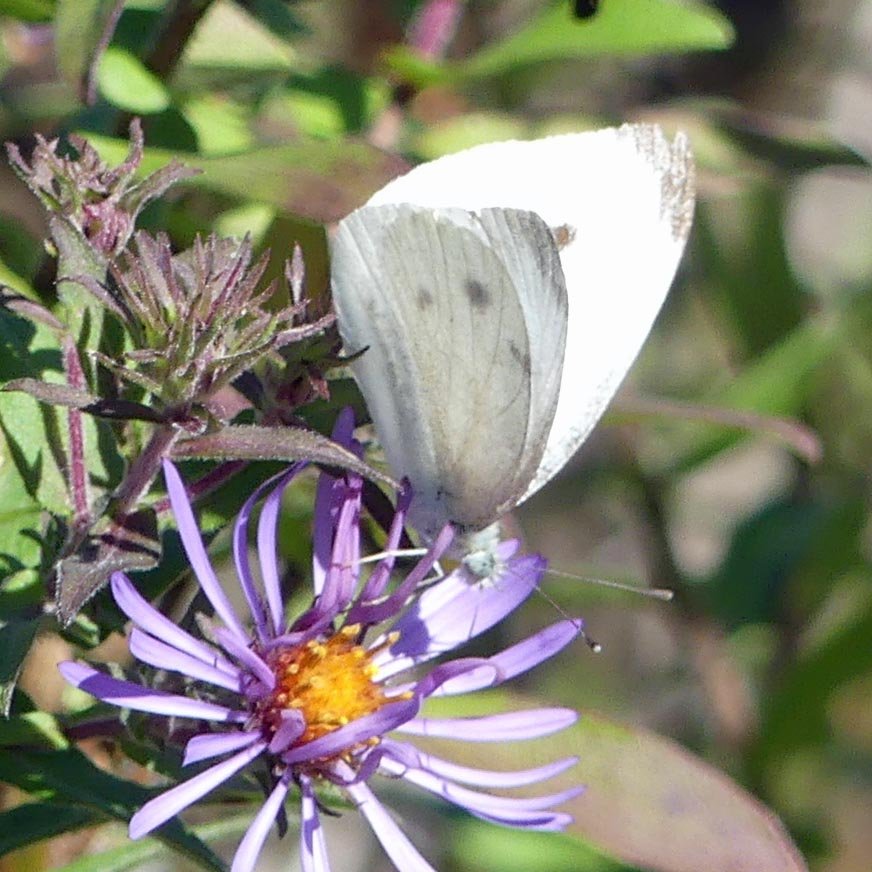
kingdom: Animalia
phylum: Arthropoda
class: Insecta
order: Lepidoptera
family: Pieridae
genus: Pieris
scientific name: Pieris rapae
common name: Cabbage White
